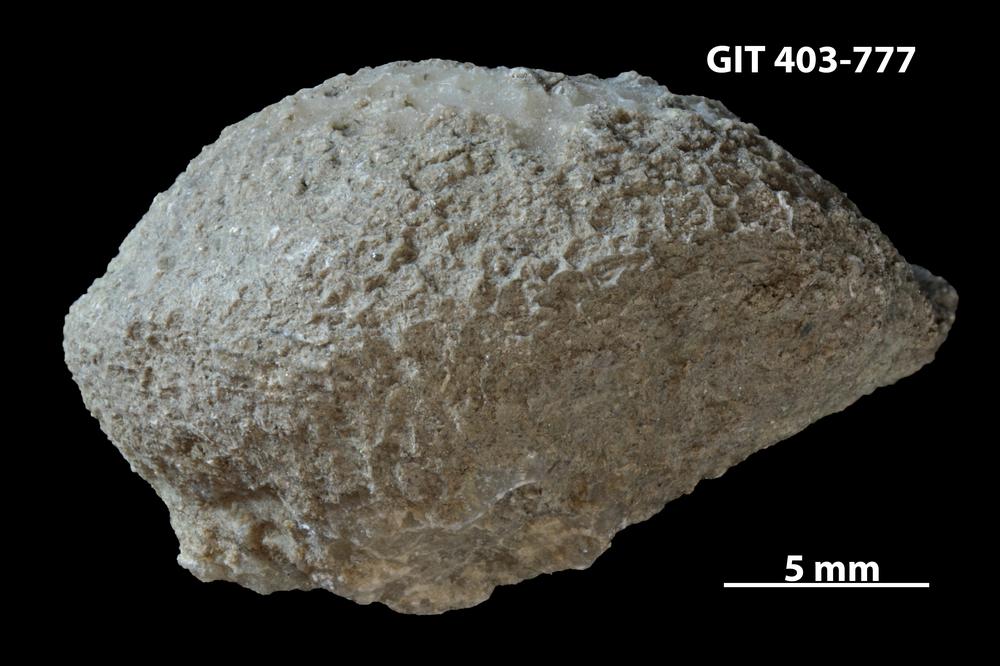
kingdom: Animalia
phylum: Cnidaria
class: Anthozoa
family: Favositidae
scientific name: Favositidae
